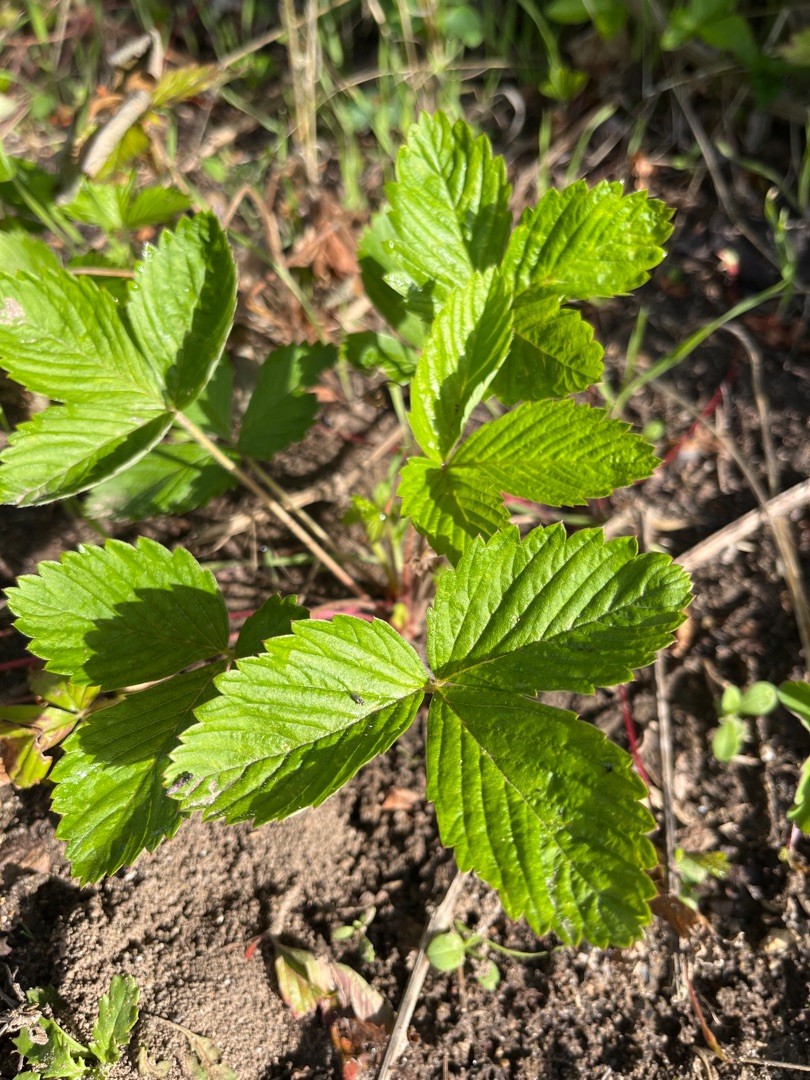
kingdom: Plantae
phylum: Tracheophyta
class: Magnoliopsida
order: Rosales
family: Rosaceae
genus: Fragaria
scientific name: Fragaria vesca
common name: Skov-jordbær
